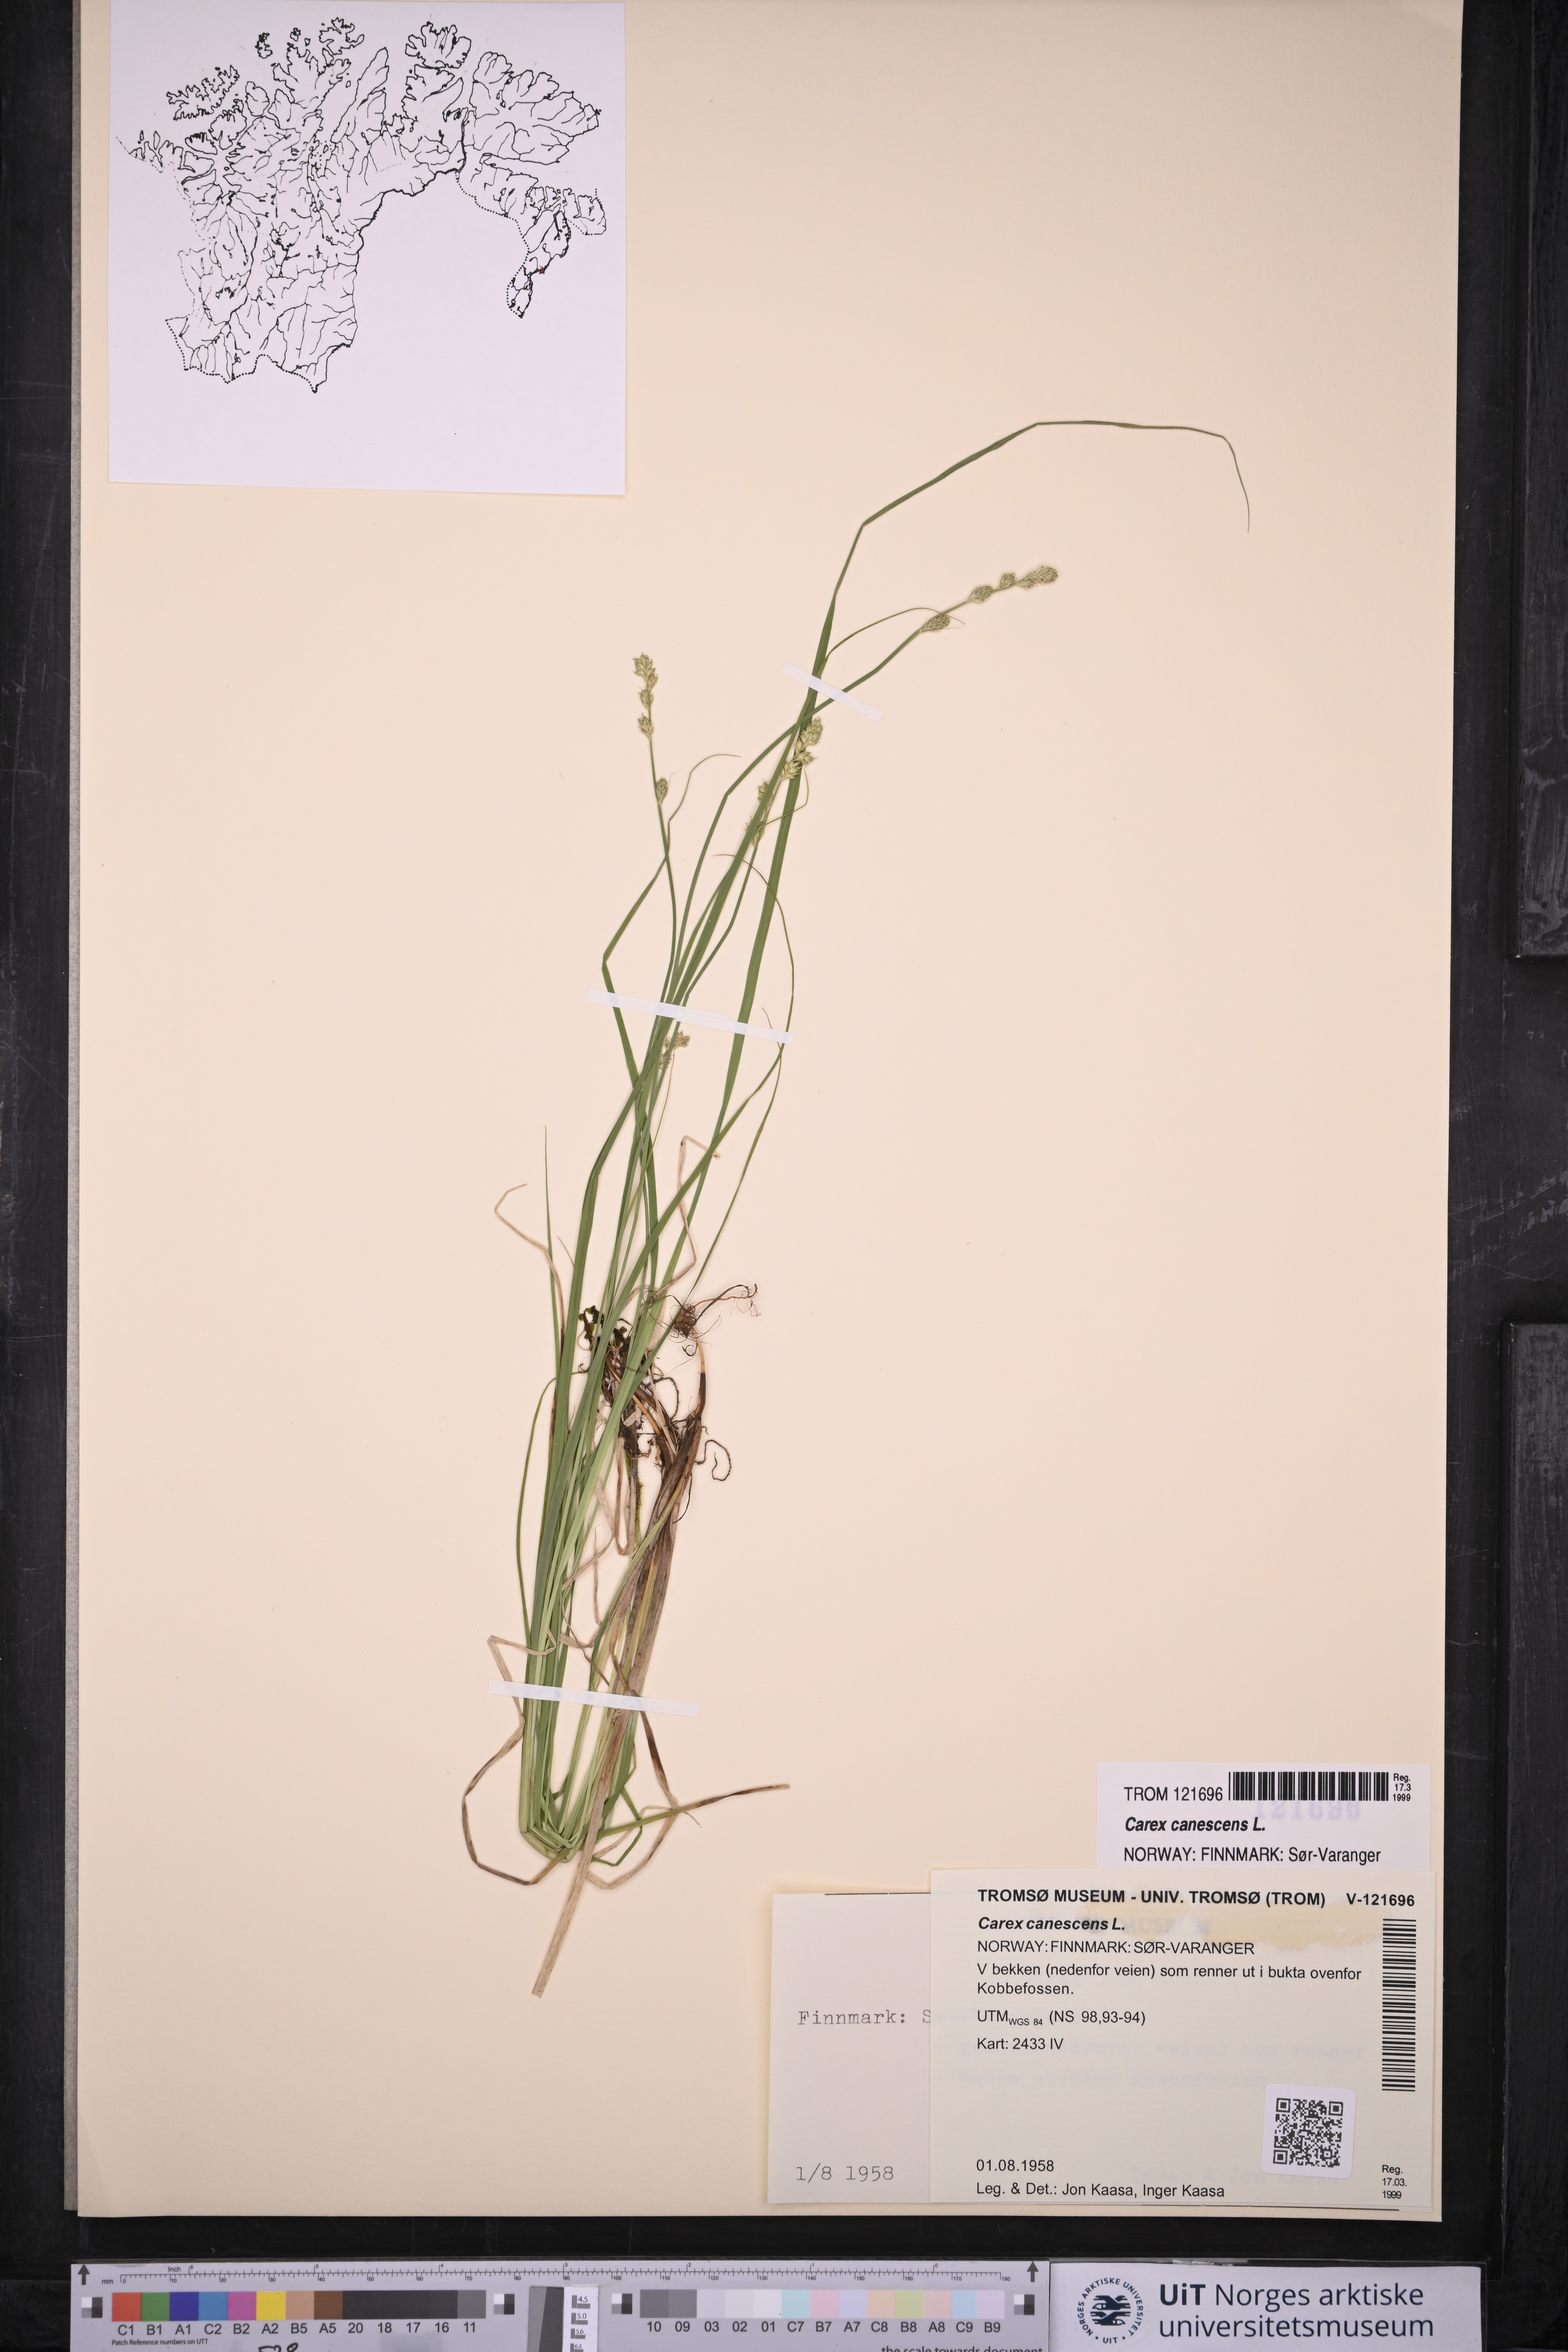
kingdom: Plantae
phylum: Tracheophyta
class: Liliopsida
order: Poales
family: Cyperaceae
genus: Carex
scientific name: Carex canescens
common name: White sedge
